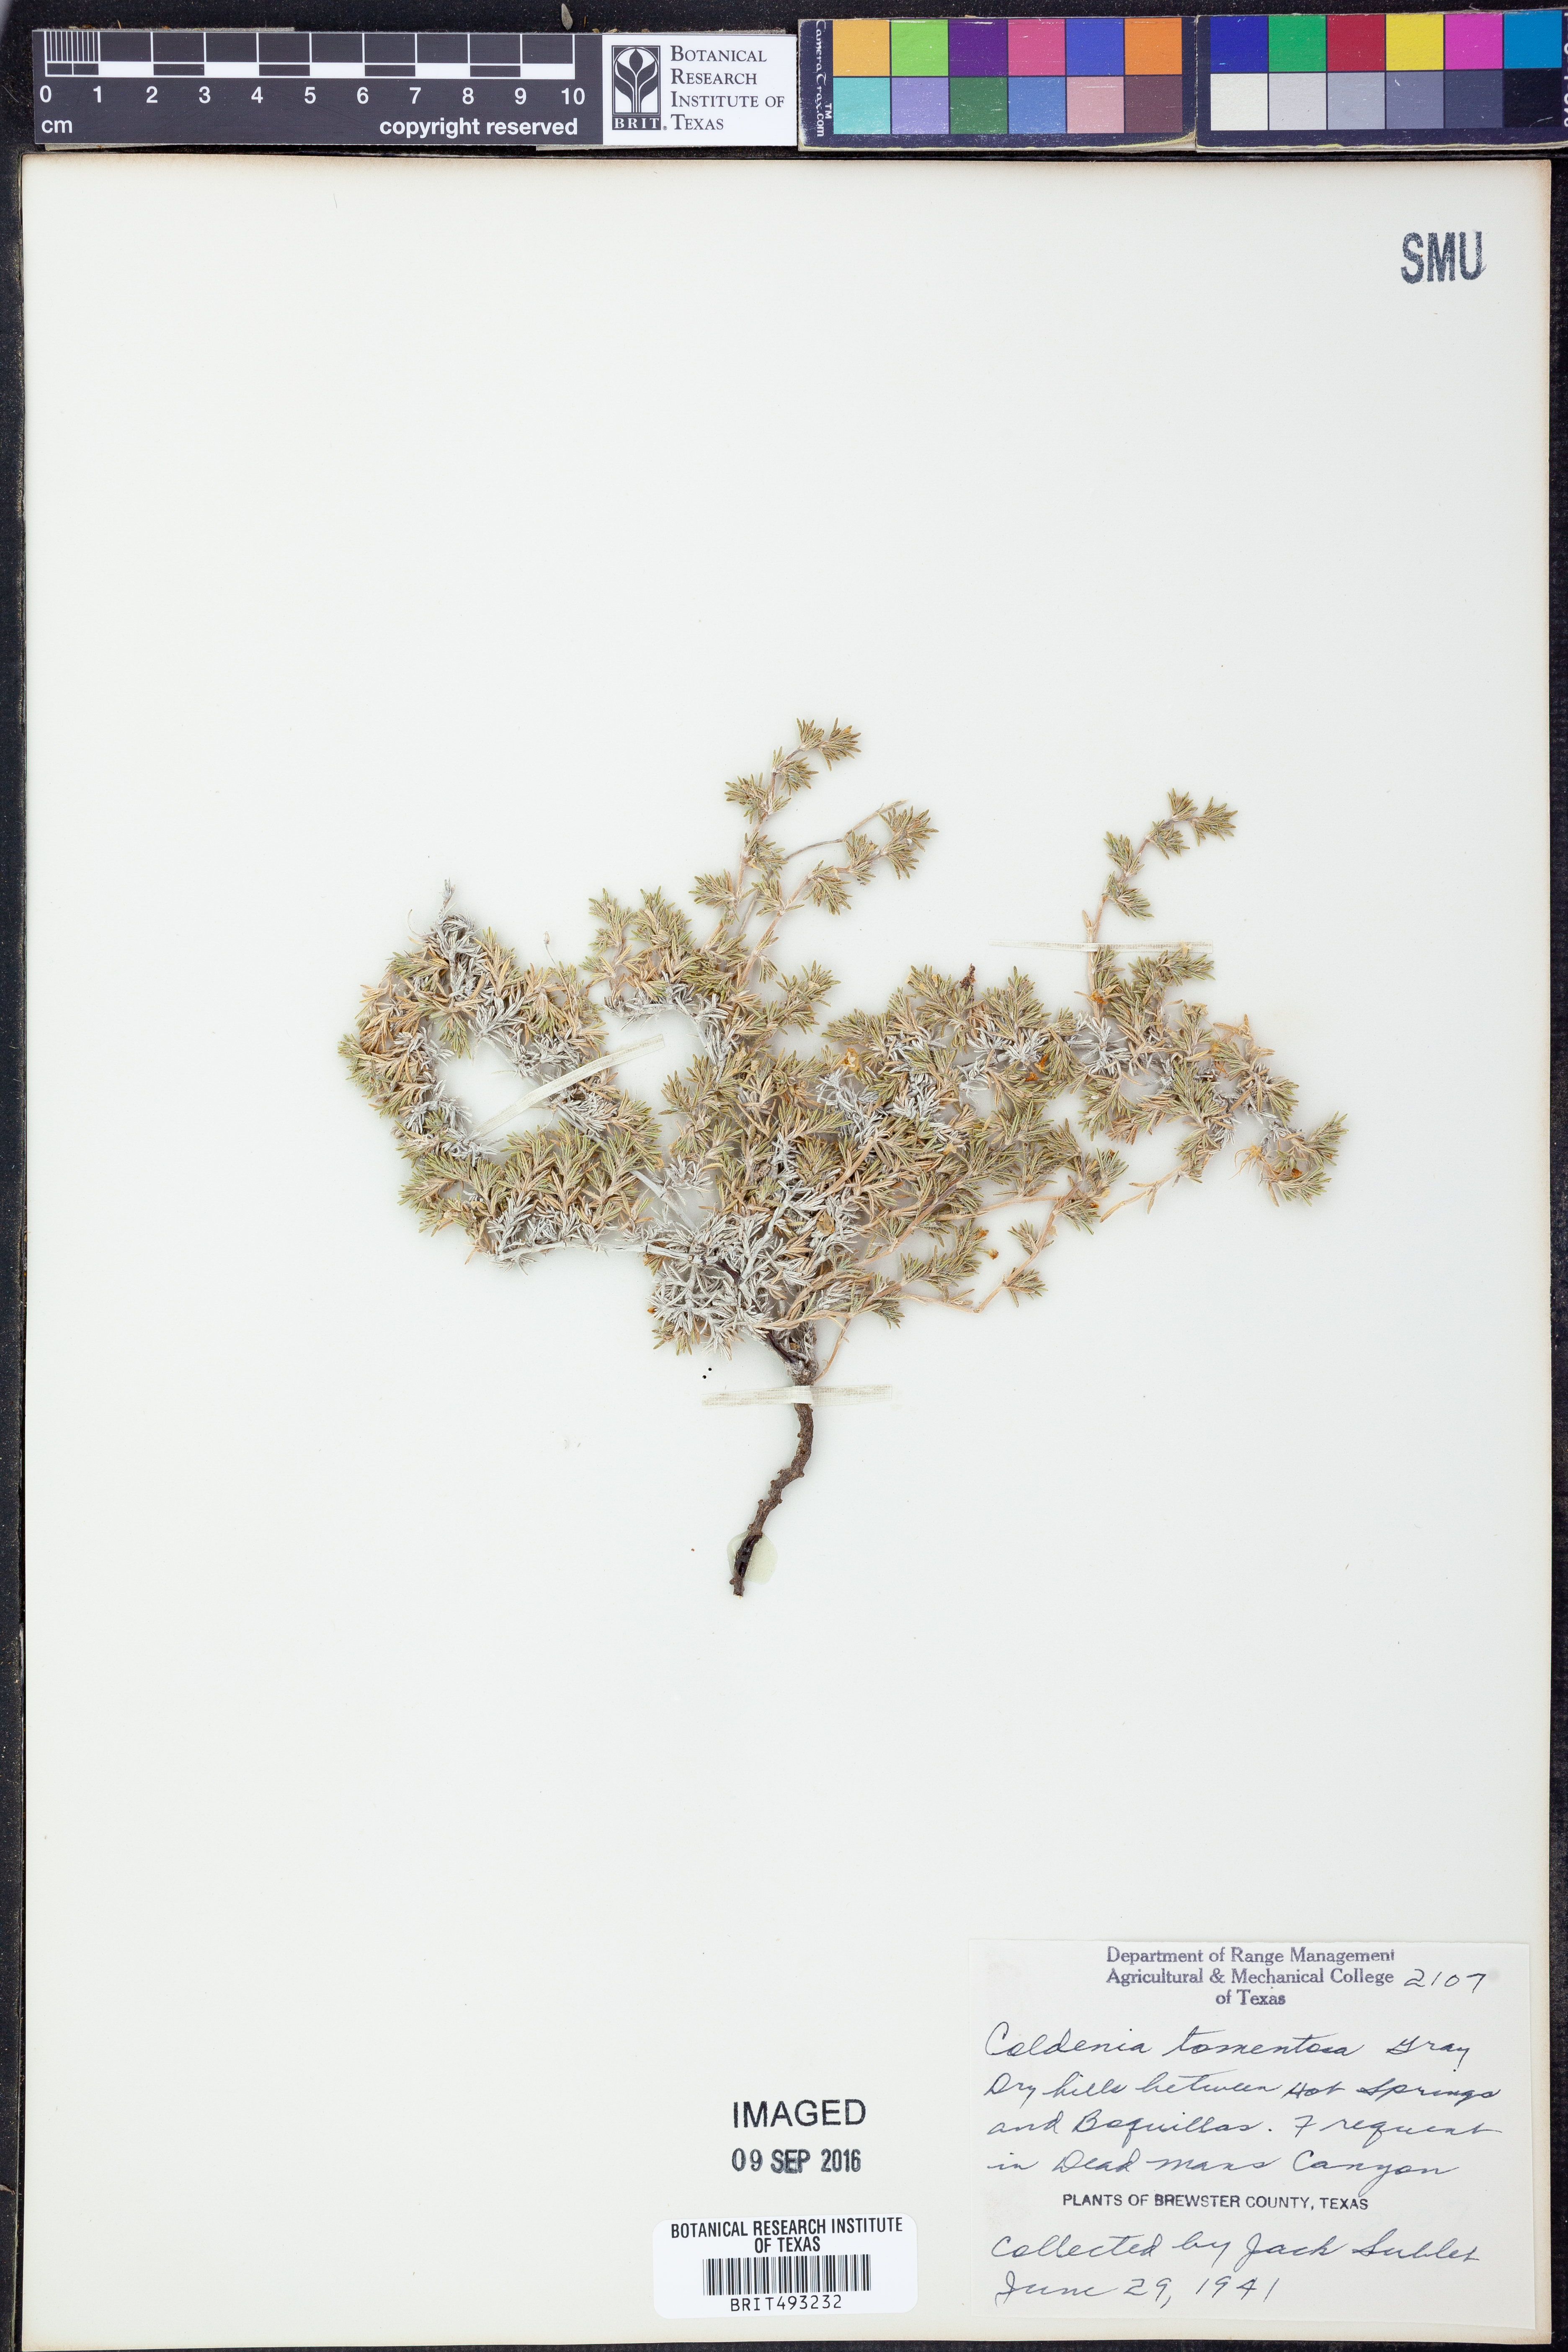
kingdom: Plantae
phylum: Tracheophyta
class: Magnoliopsida
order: Boraginales
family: Ehretiaceae
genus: Tiquilia
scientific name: Tiquilia mexicana
